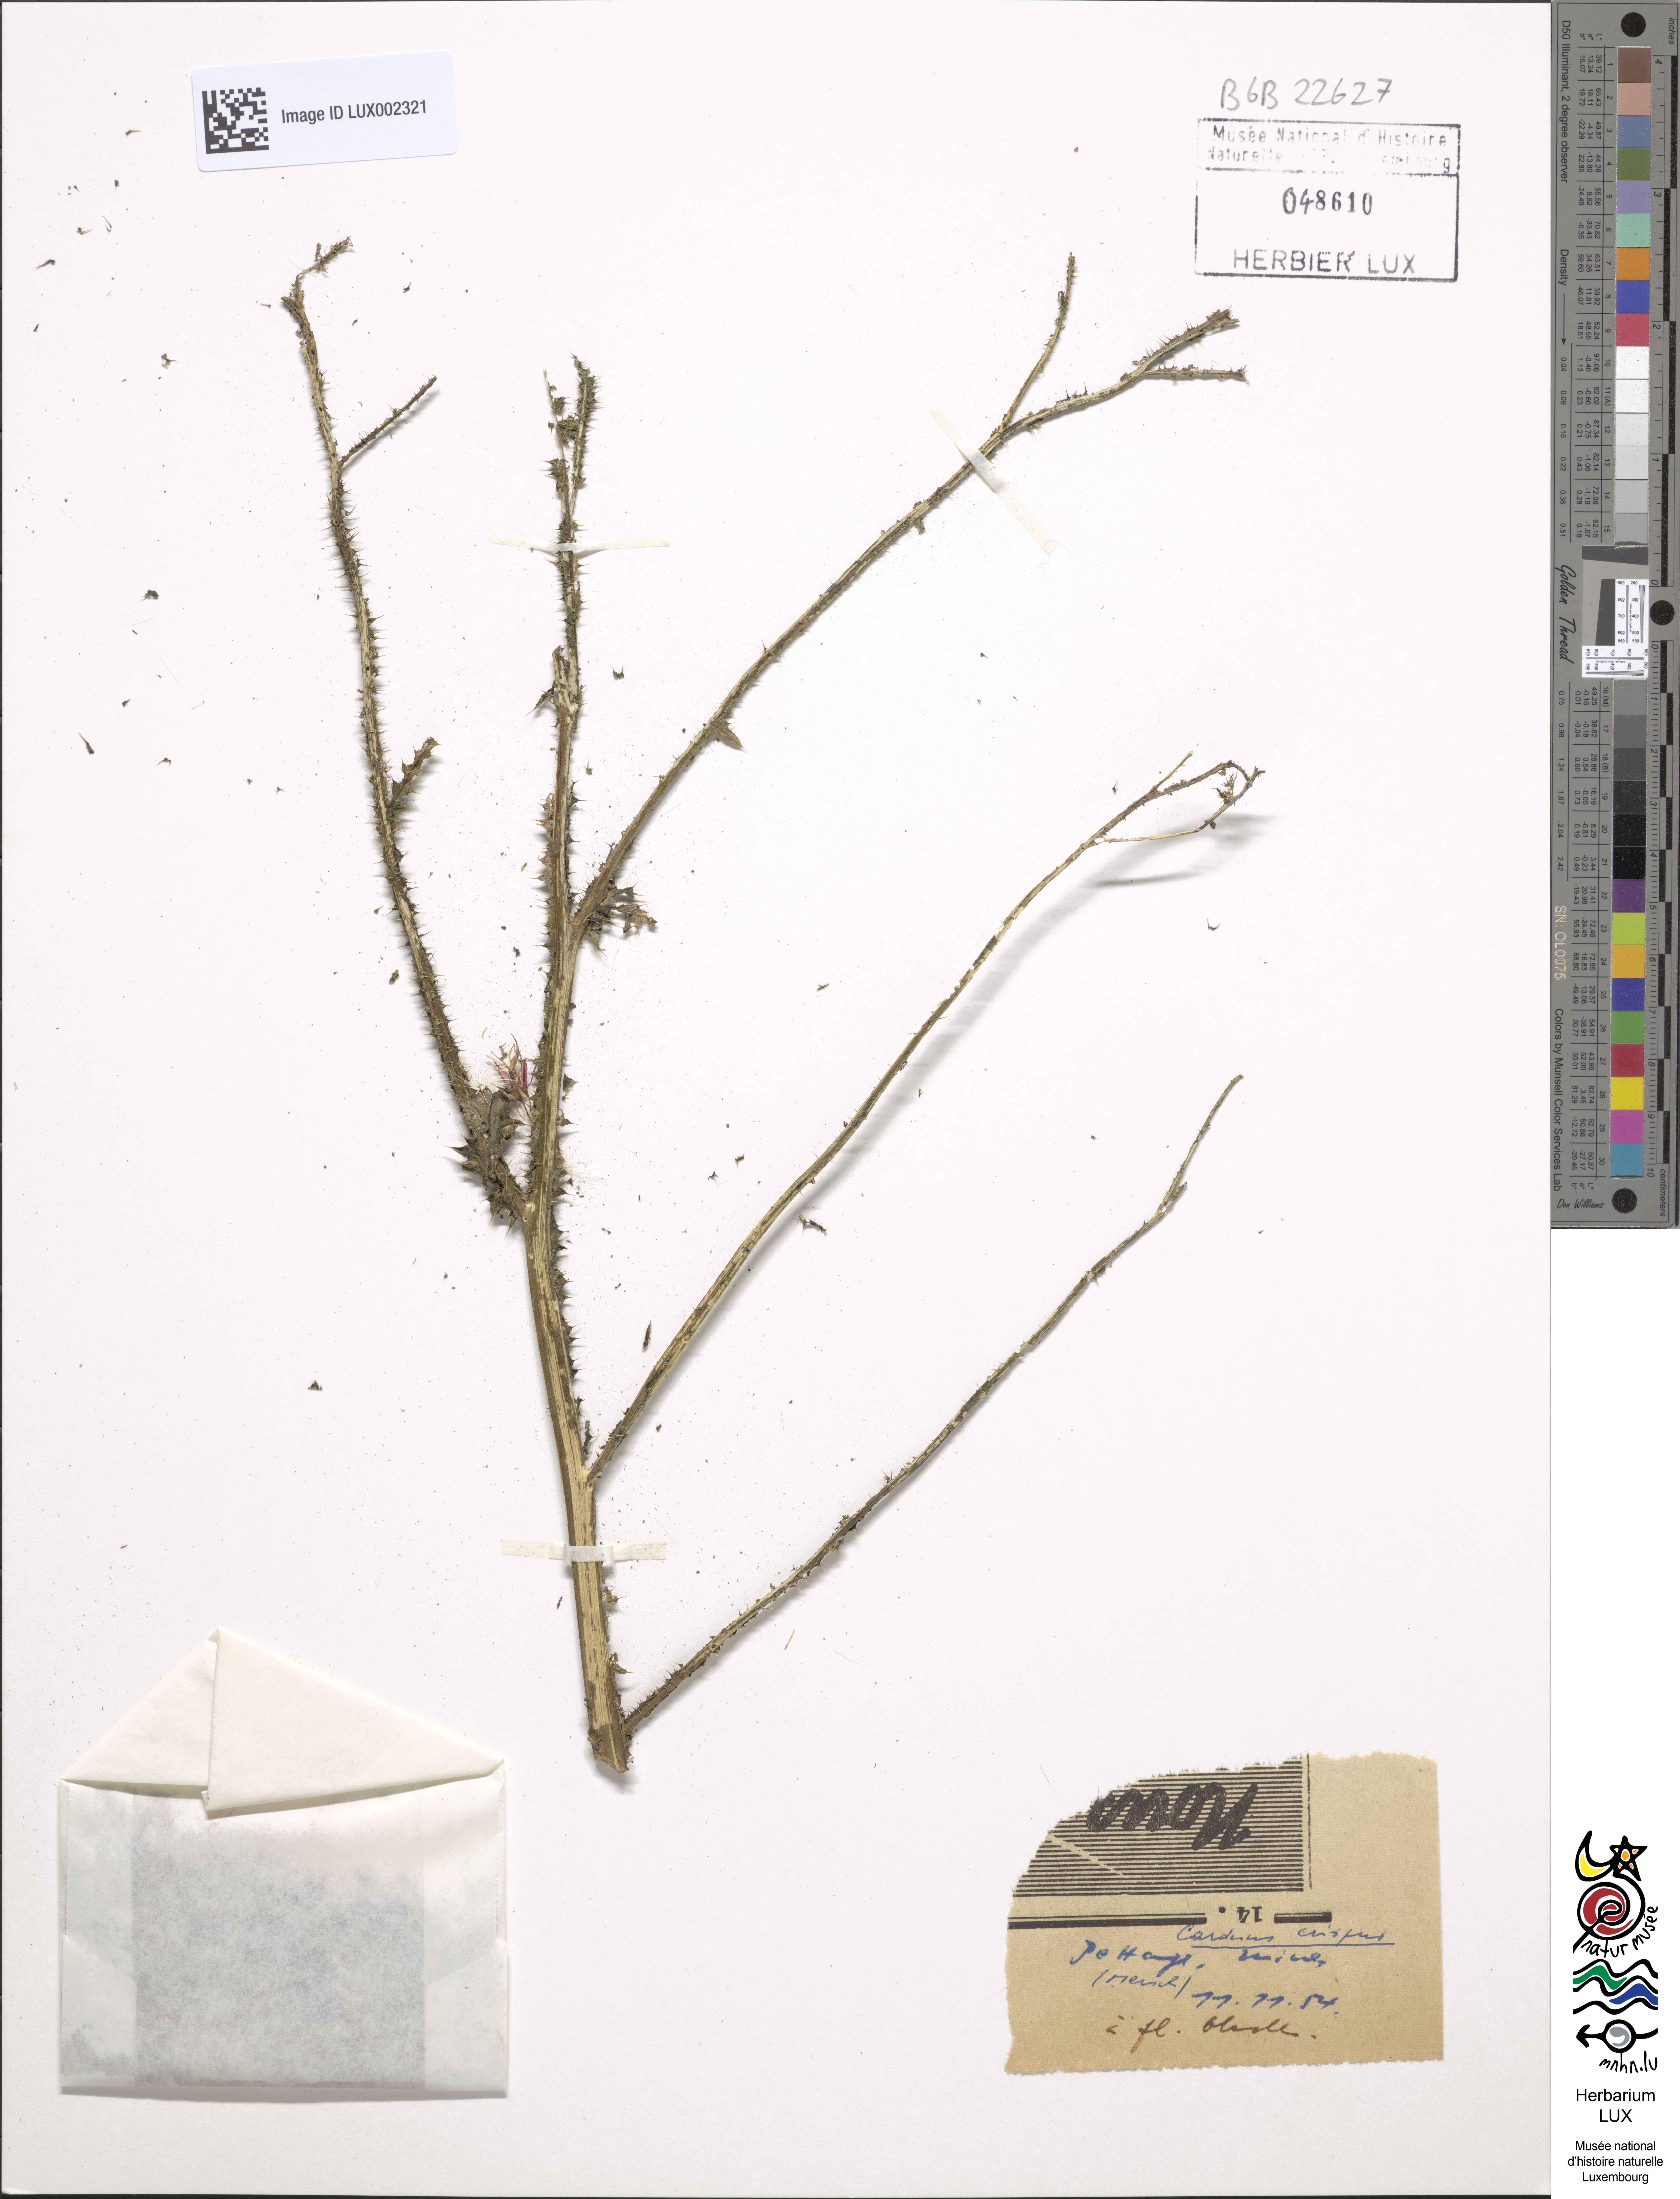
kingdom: Plantae
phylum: Tracheophyta
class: Magnoliopsida
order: Asterales
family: Asteraceae
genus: Carduus
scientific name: Carduus crispus
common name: Welted thistle
